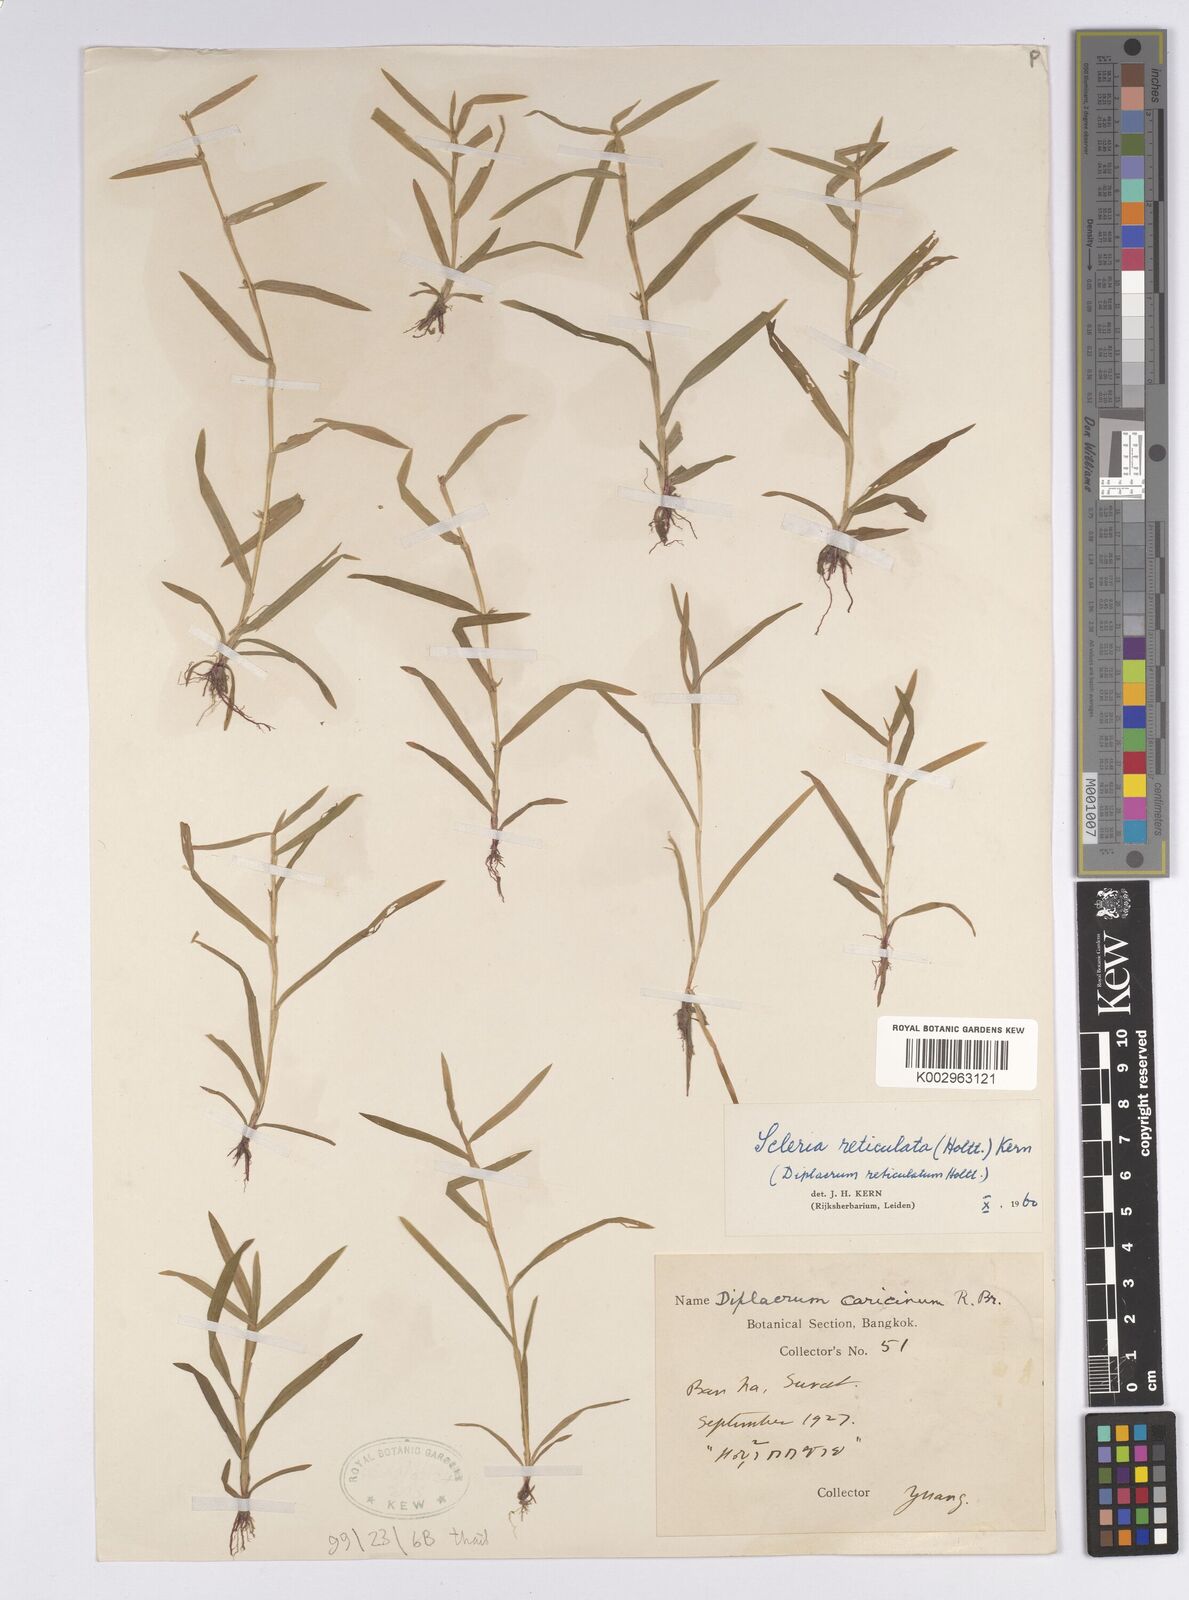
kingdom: Plantae
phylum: Tracheophyta
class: Liliopsida
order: Poales
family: Cyperaceae
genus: Diplacrum
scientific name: Diplacrum caricinum
